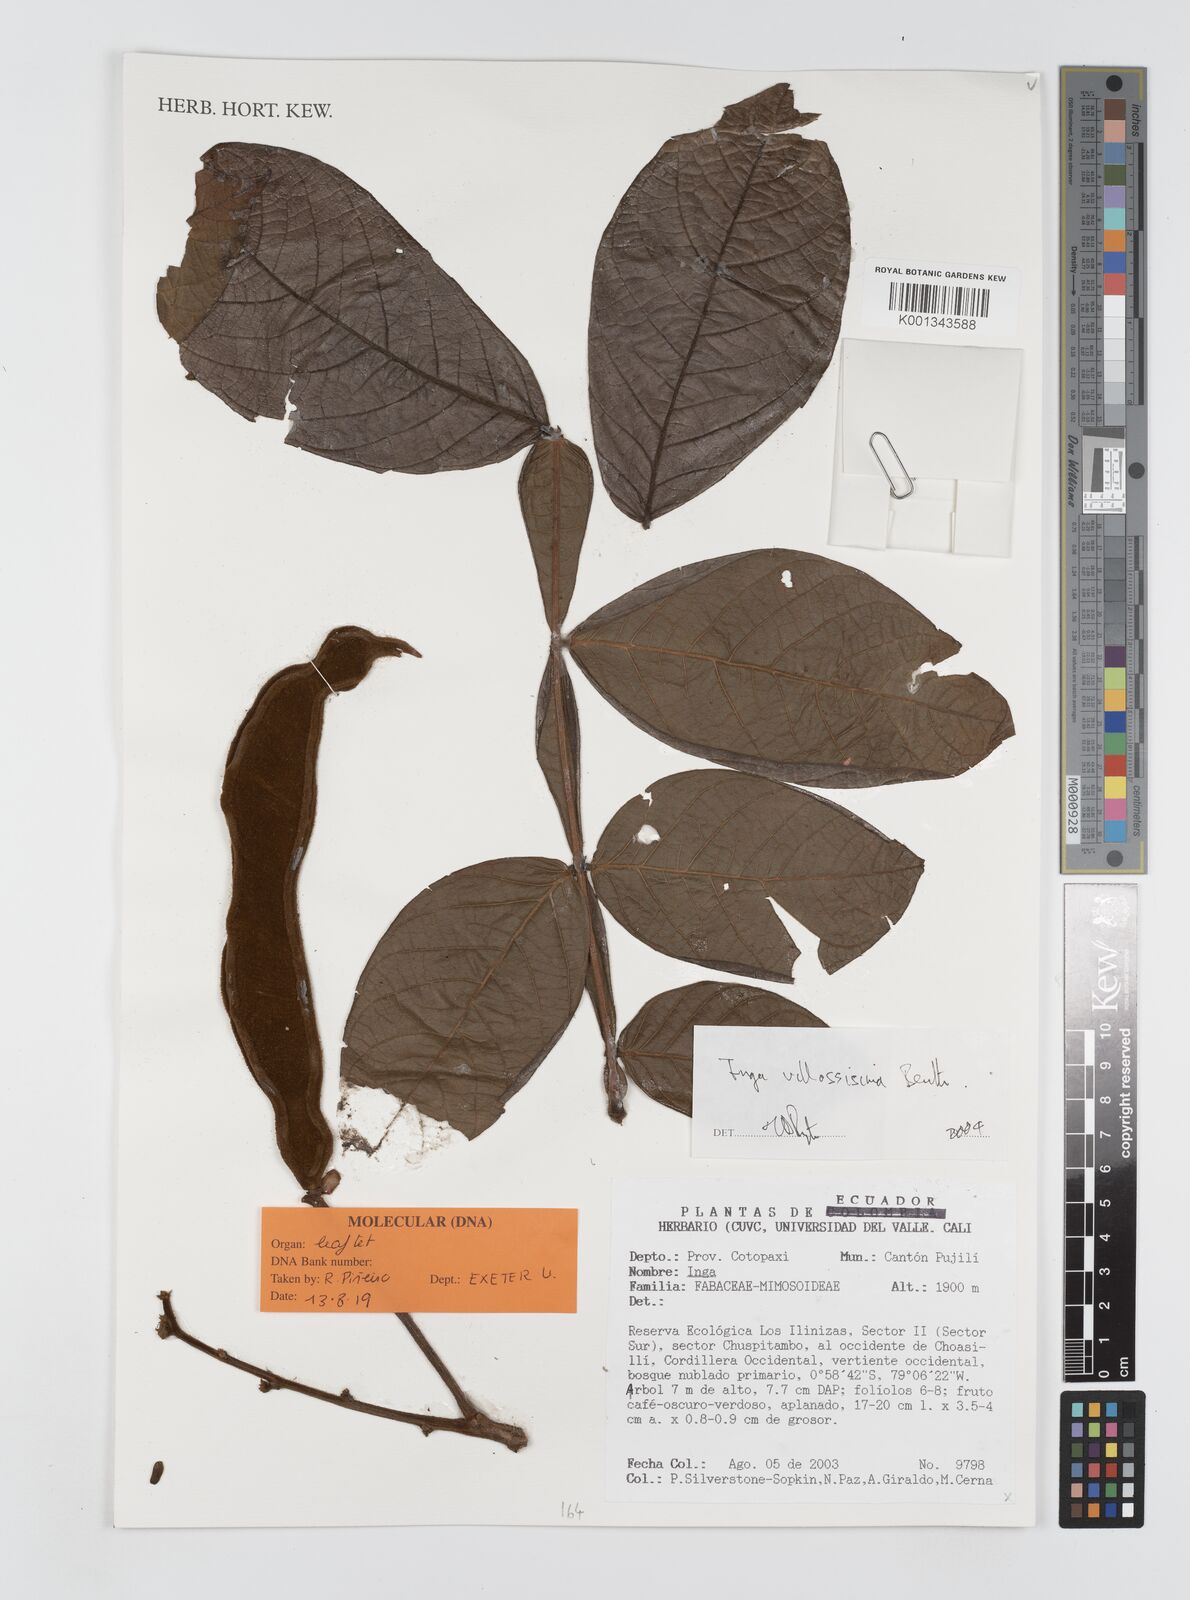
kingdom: Plantae
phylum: Tracheophyta
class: Magnoliopsida
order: Fabales
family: Fabaceae
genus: Inga
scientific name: Inga villosissima
